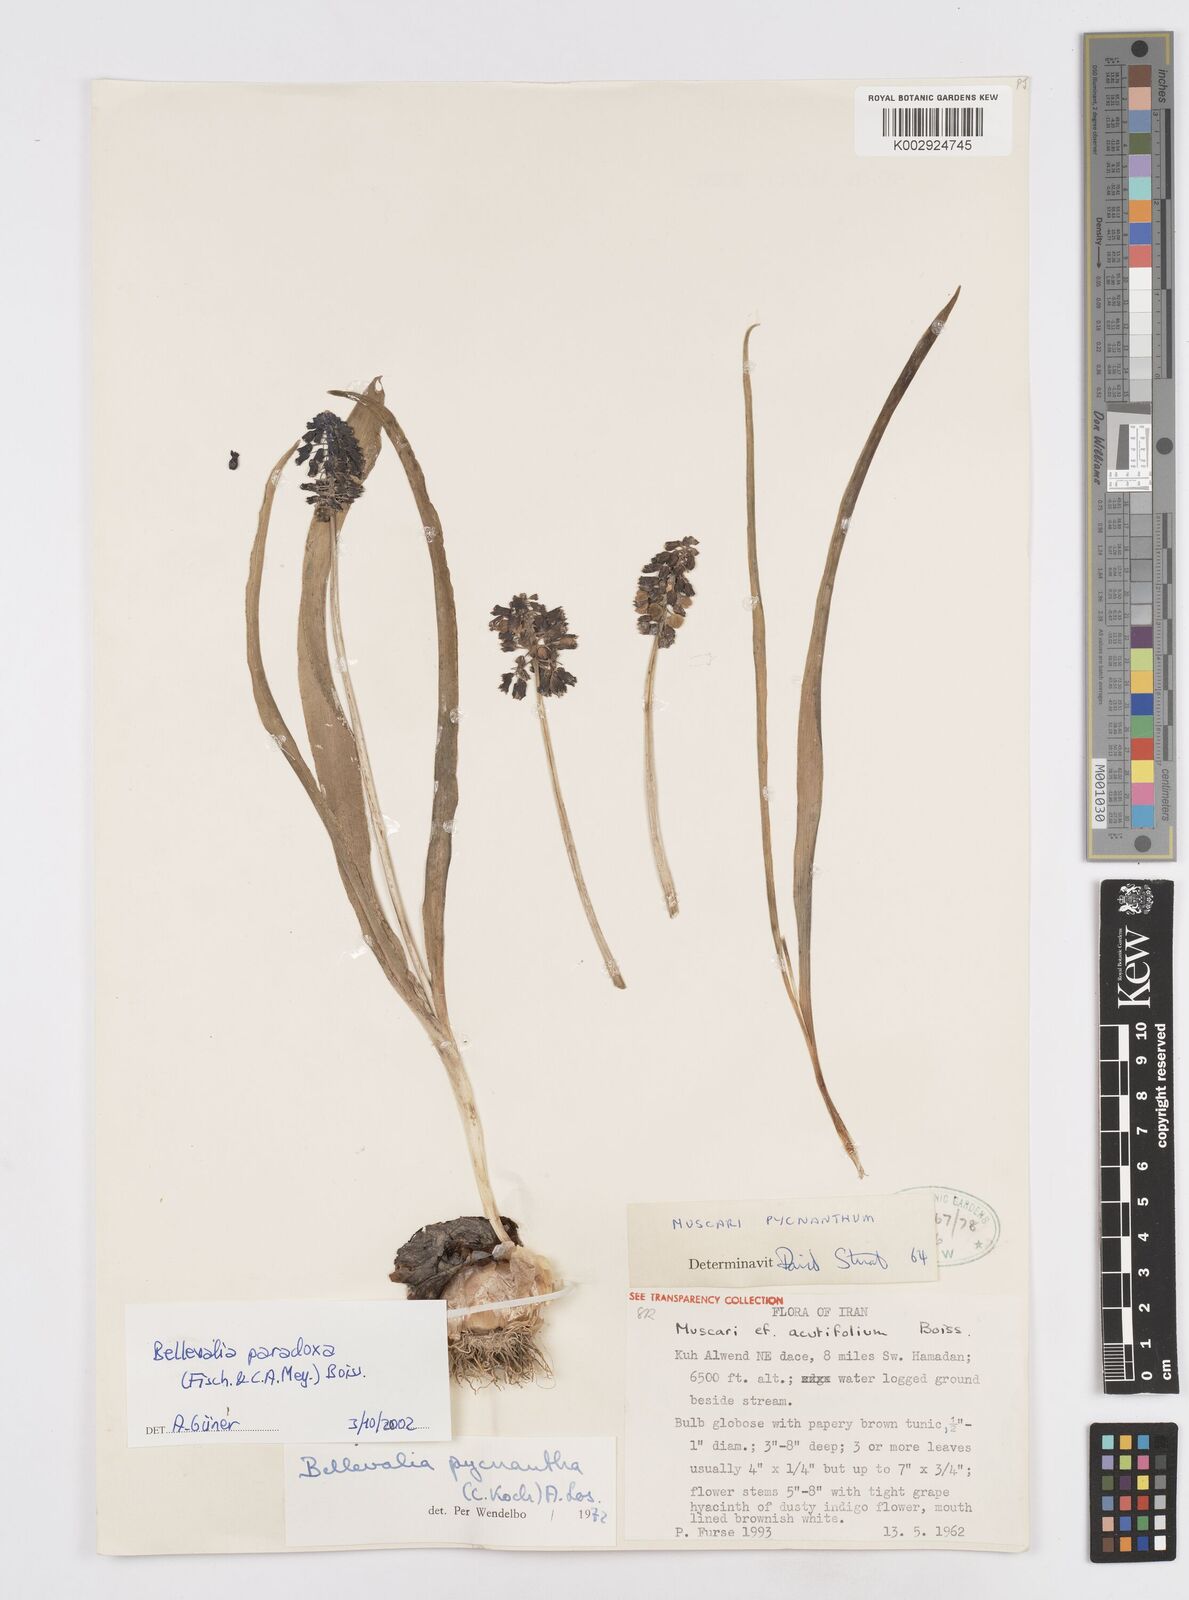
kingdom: Plantae
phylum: Tracheophyta
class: Liliopsida
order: Asparagales
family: Asparagaceae
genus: Bellevalia
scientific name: Bellevalia paradoxa
